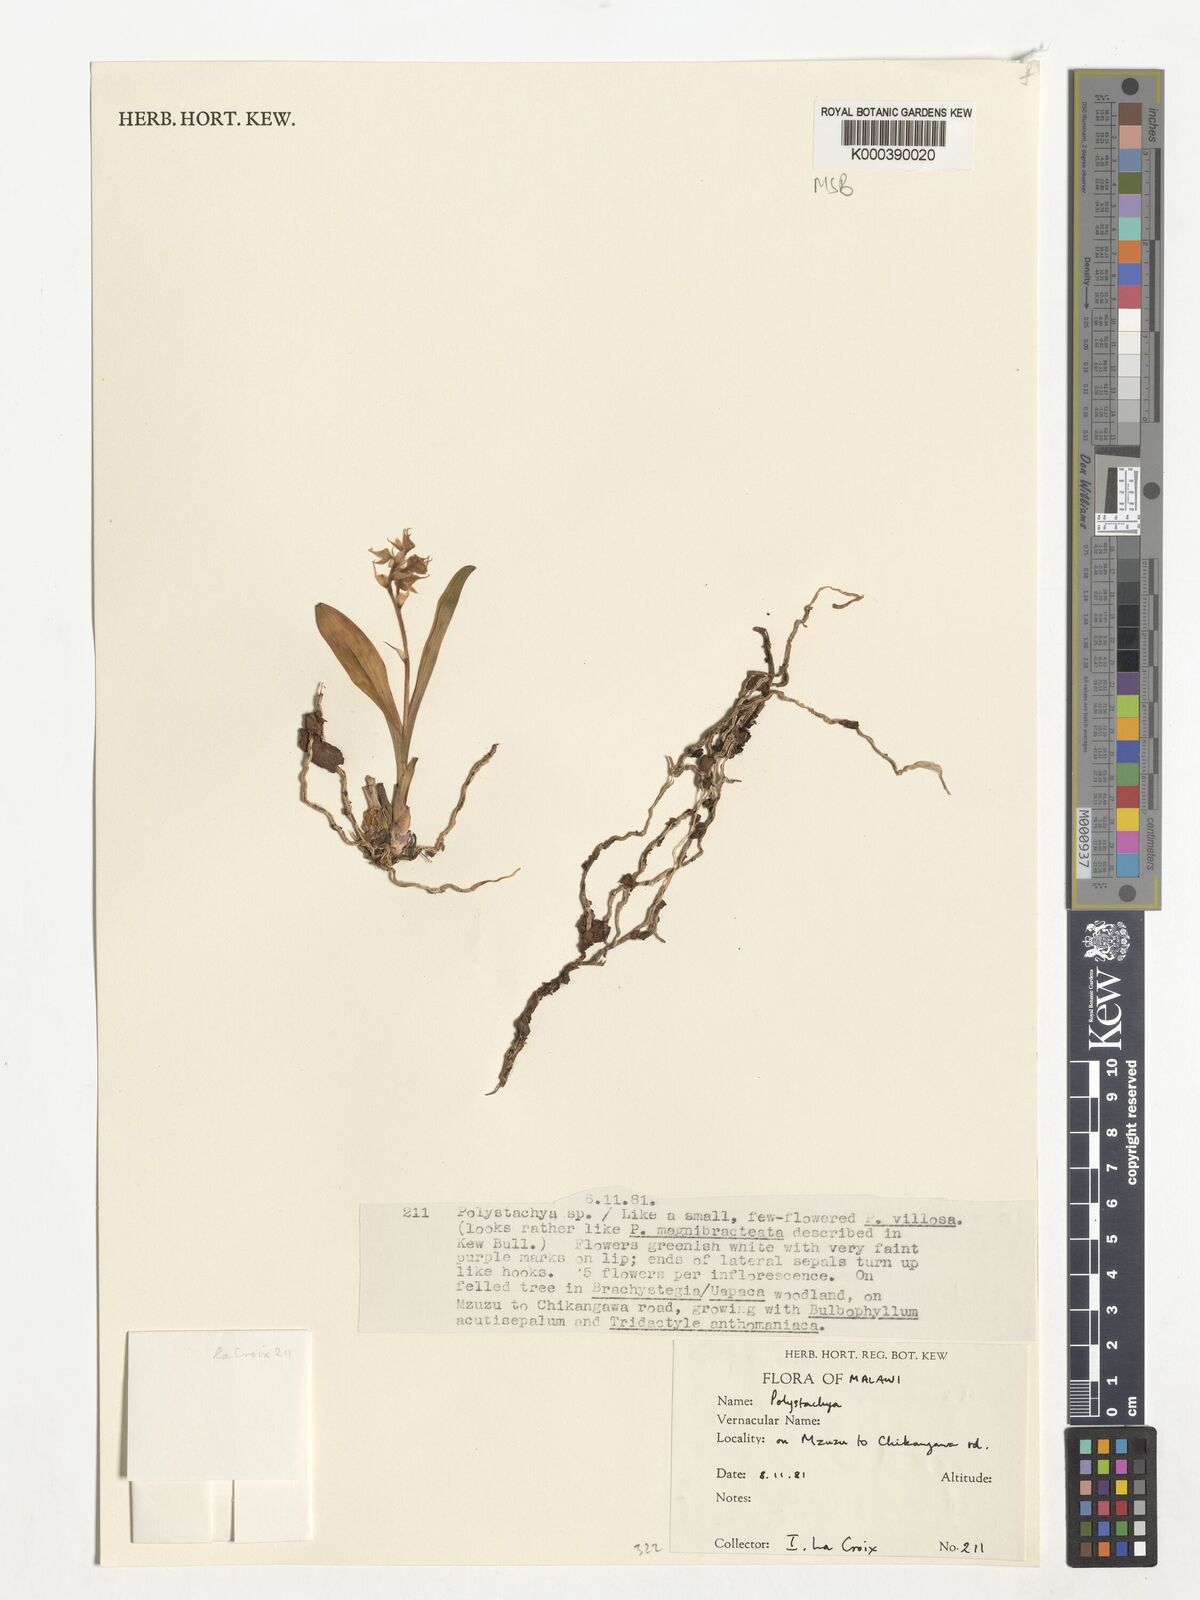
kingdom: Plantae
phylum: Tracheophyta
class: Liliopsida
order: Asparagales
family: Orchidaceae
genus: Polystachya
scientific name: Polystachya magnibracteata
